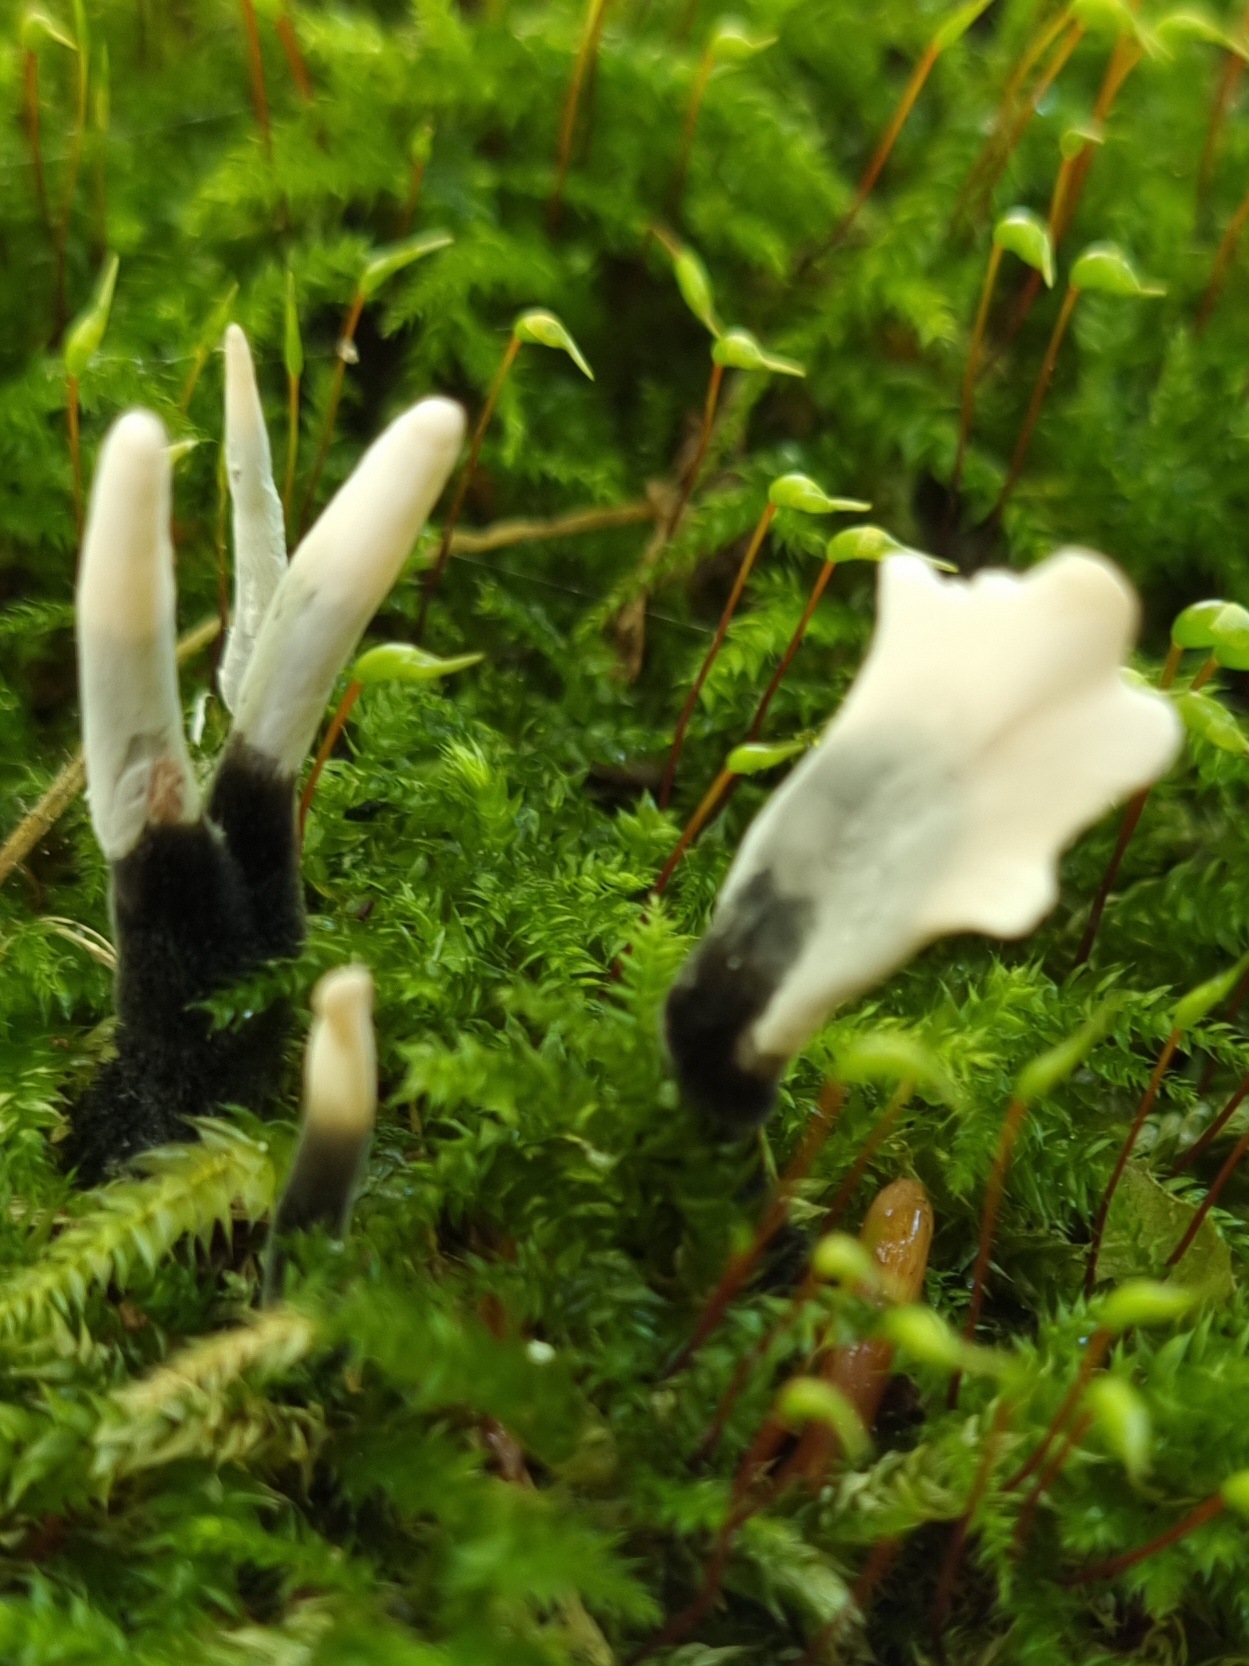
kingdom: Fungi
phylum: Ascomycota
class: Sordariomycetes
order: Xylariales
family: Xylariaceae
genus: Xylaria
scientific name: Xylaria hypoxylon
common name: grenet stødsvamp
